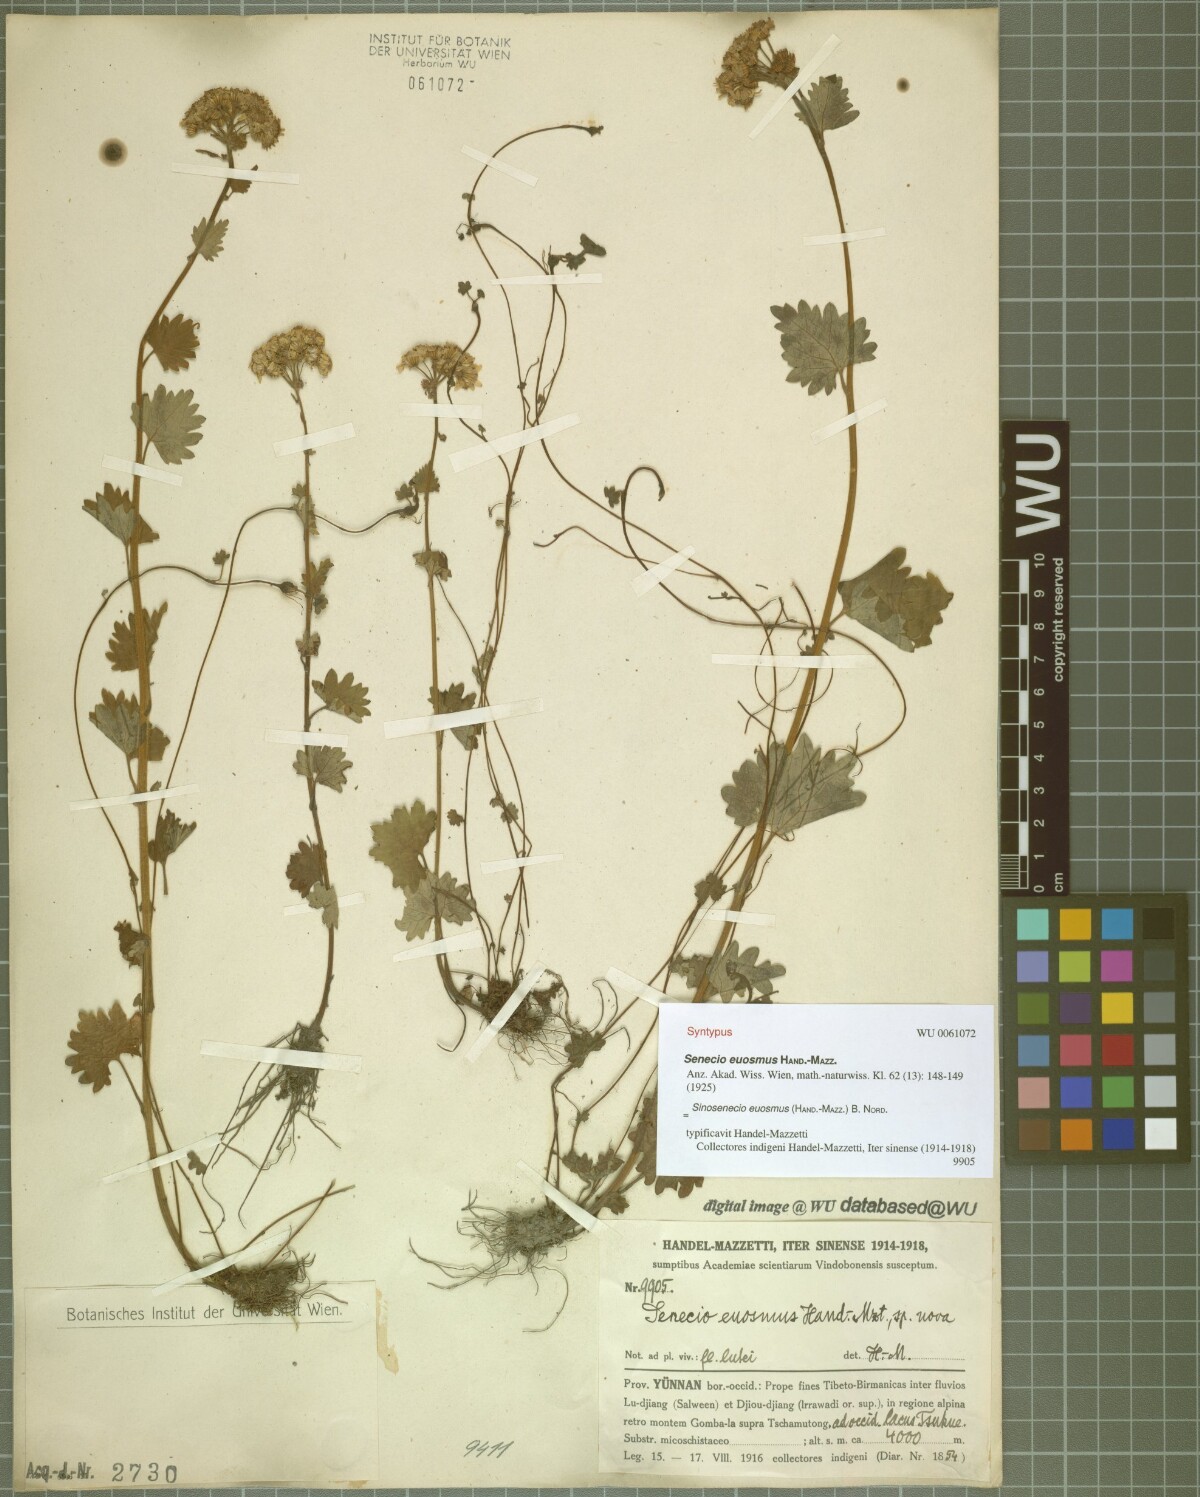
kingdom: Plantae
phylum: Tracheophyta
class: Magnoliopsida
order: Asterales
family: Asteraceae
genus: Sinosenecio
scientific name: Sinosenecio euosmus
